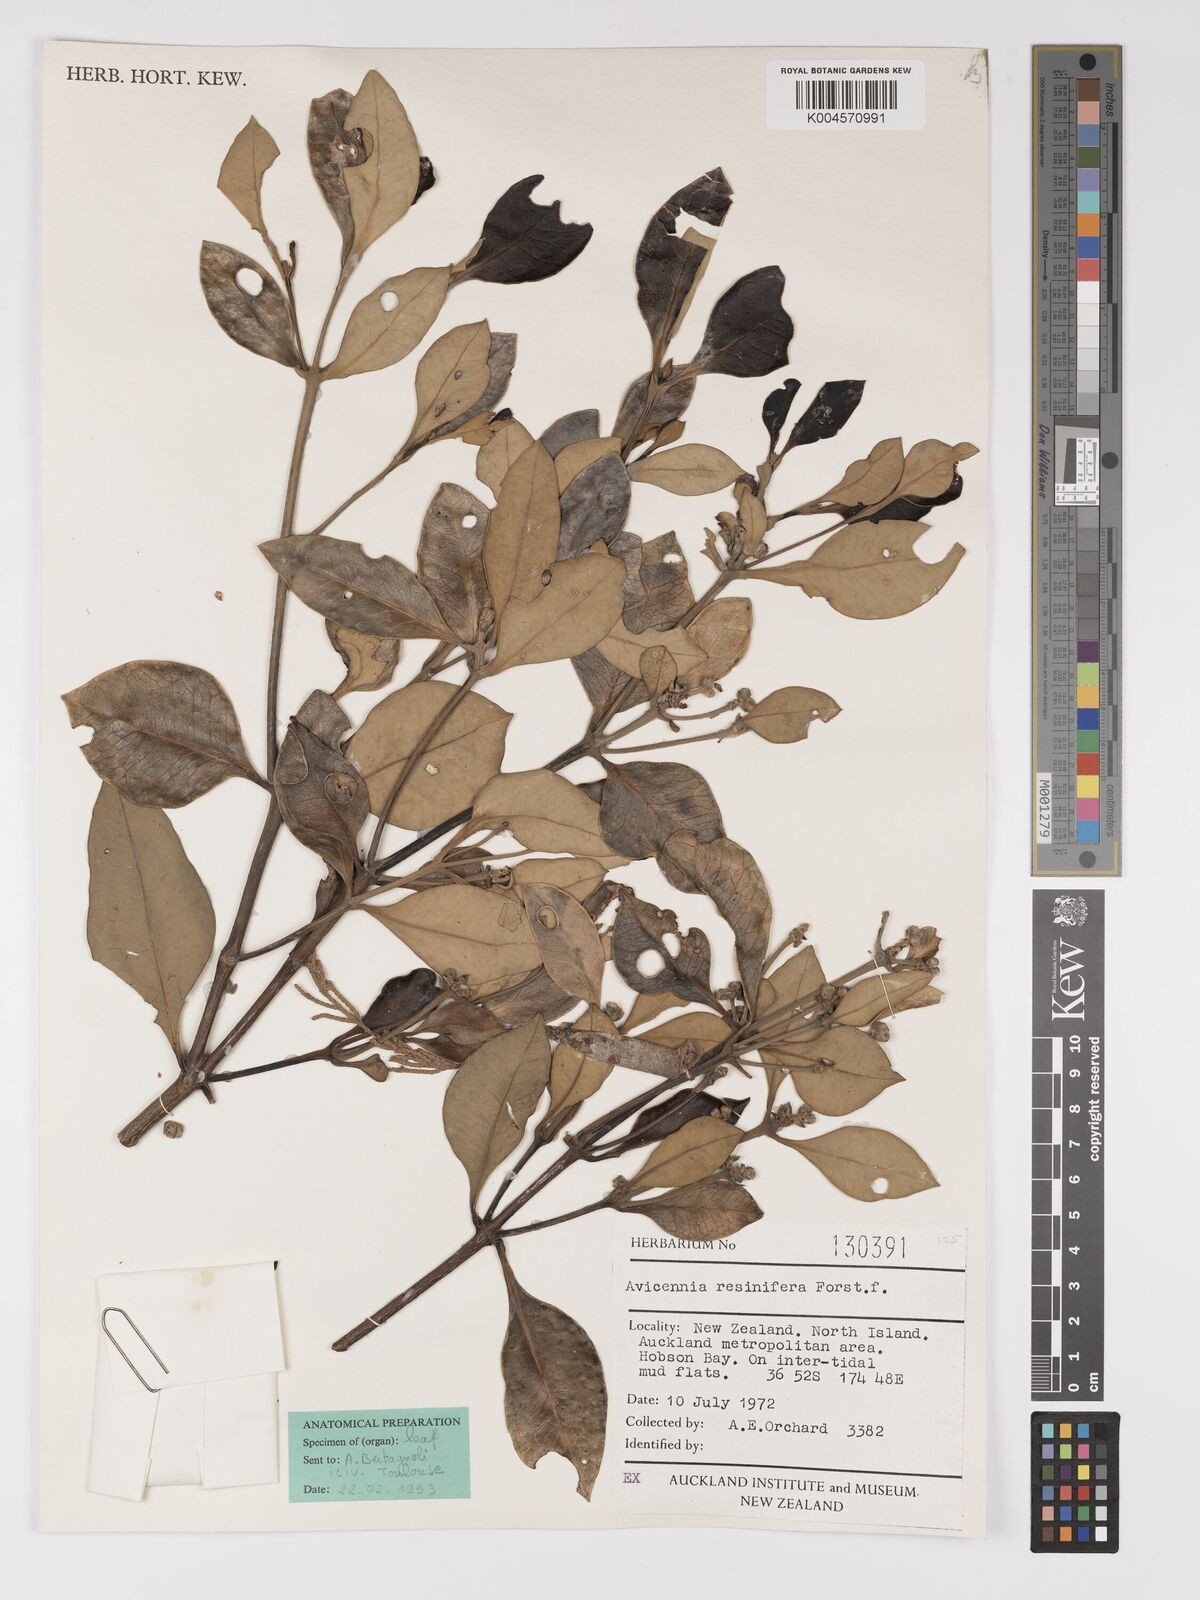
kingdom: Plantae
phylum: Tracheophyta
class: Magnoliopsida
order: Lamiales
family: Acanthaceae
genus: Avicennia
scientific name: Avicennia marina
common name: Gray mangrove
